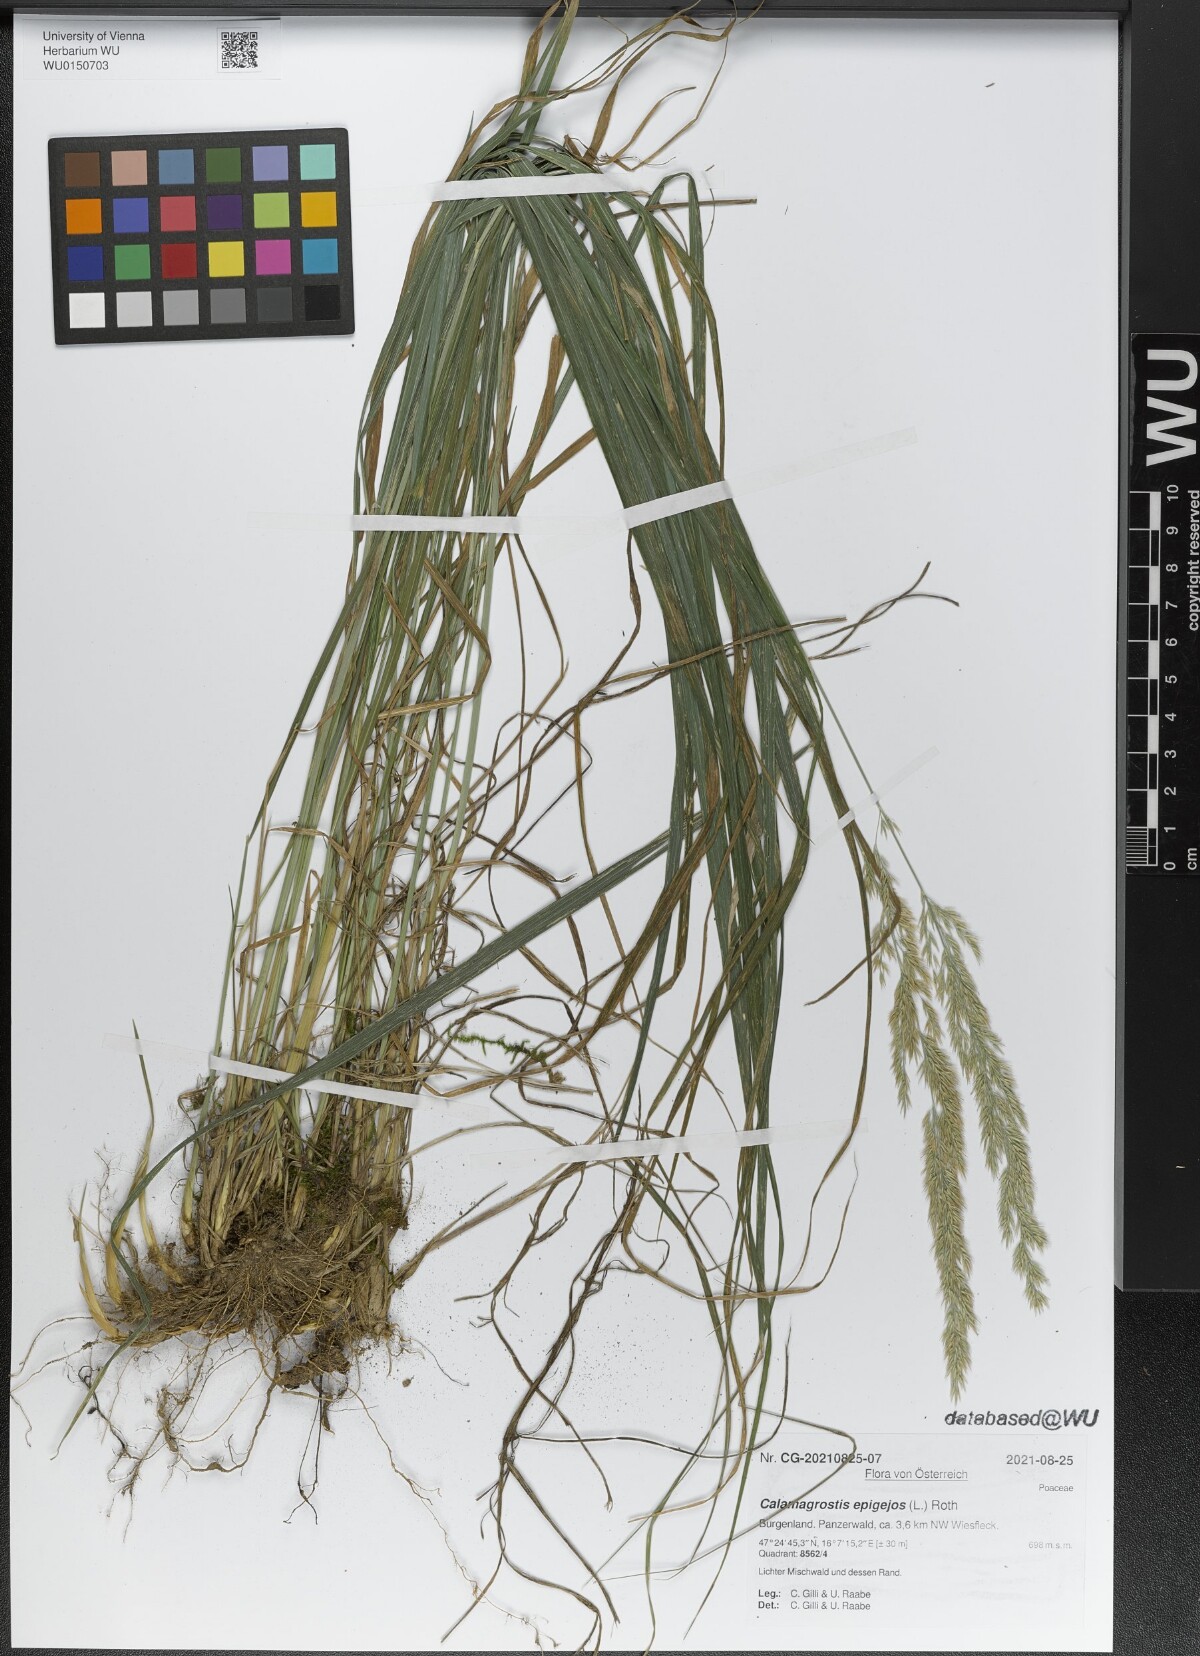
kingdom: Plantae
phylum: Tracheophyta
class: Liliopsida
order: Poales
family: Poaceae
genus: Calamagrostis
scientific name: Calamagrostis epigejos
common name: Wood small-reed
